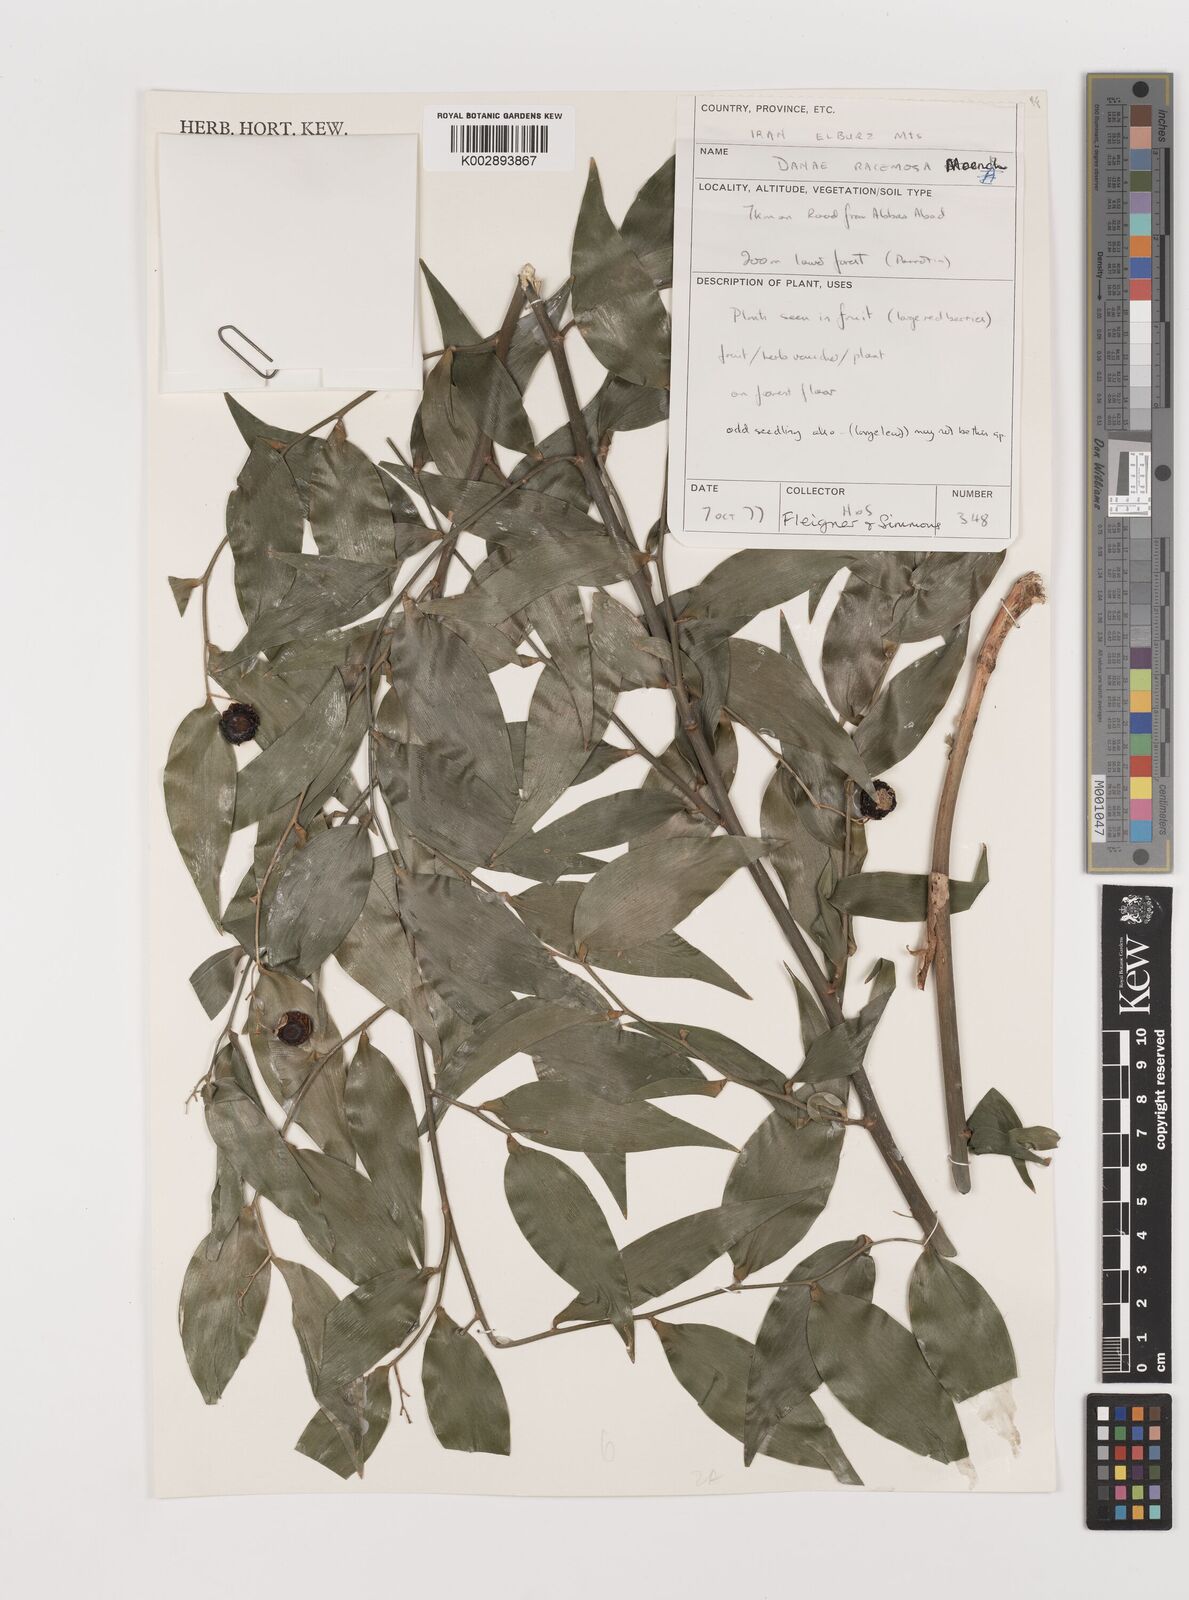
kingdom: Plantae
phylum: Tracheophyta
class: Liliopsida
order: Asparagales
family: Asparagaceae
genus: Danae
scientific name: Danae racemosa
